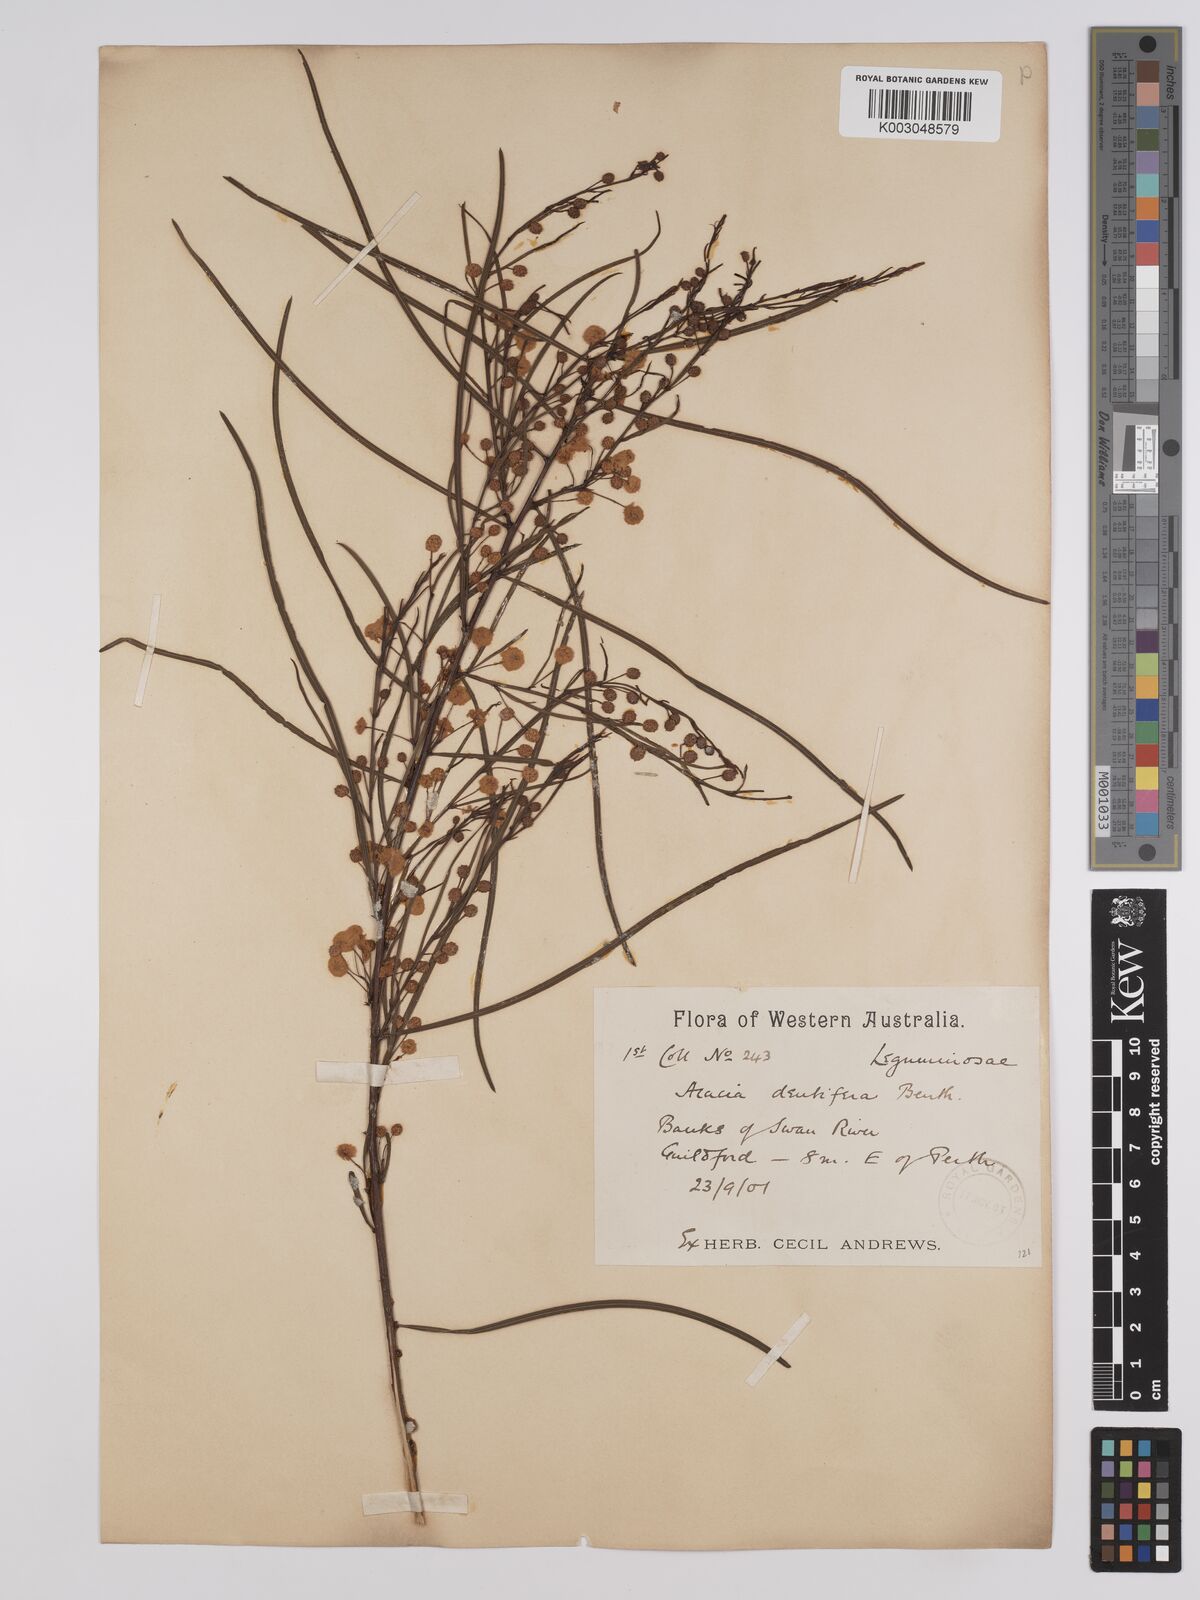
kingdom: Plantae
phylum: Tracheophyta
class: Magnoliopsida
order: Fabales
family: Fabaceae
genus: Acacia
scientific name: Acacia dentifera
